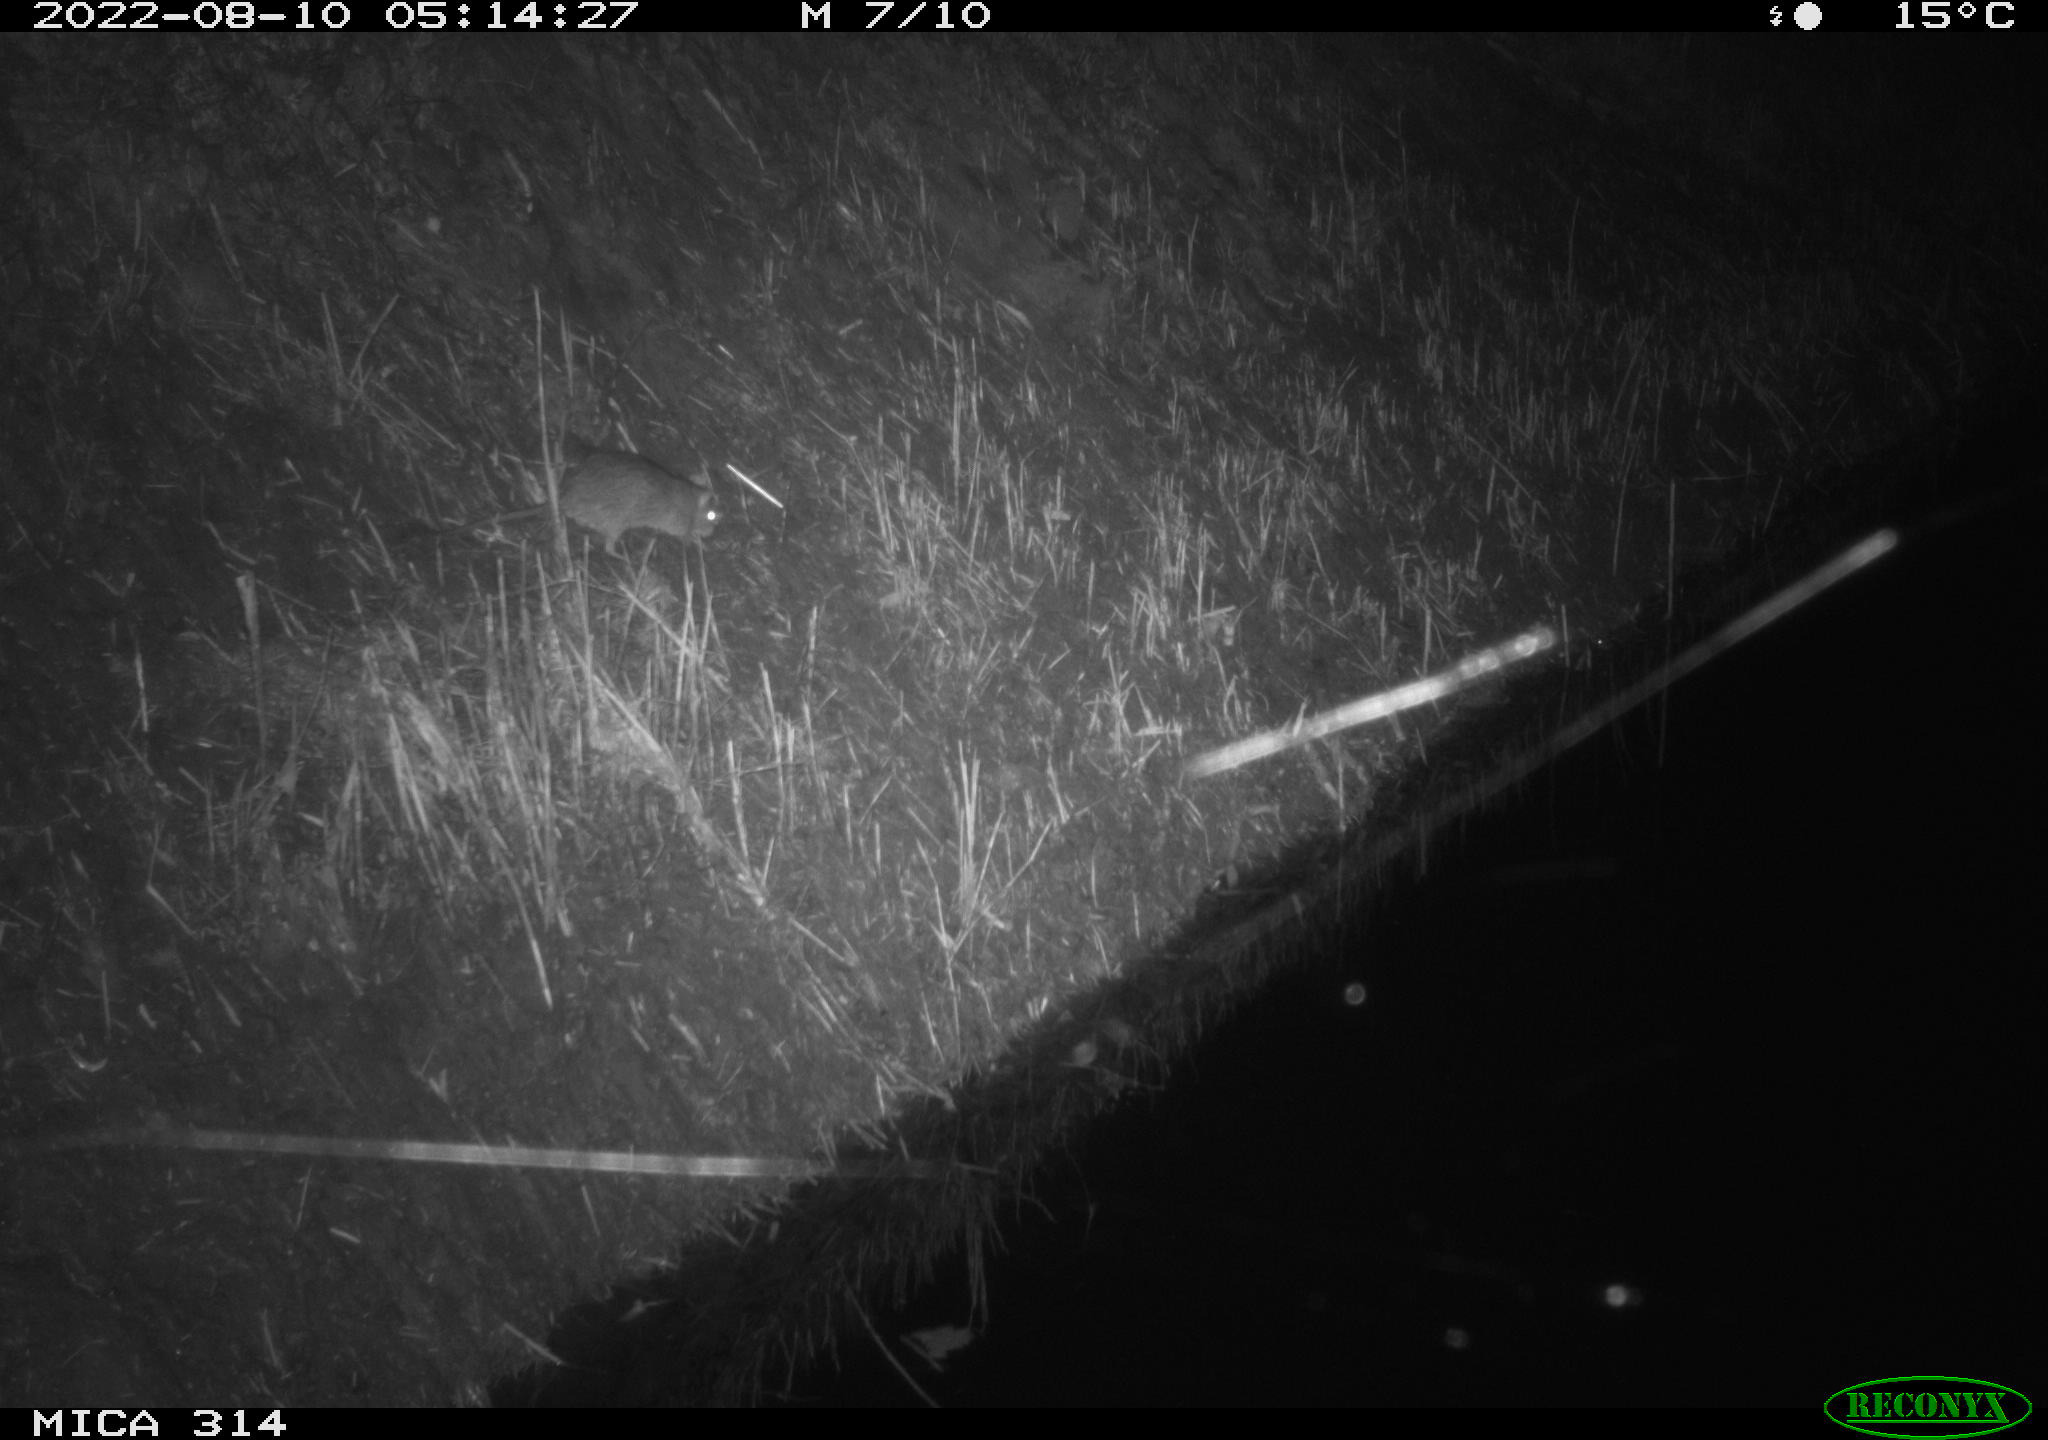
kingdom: Animalia
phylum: Chordata
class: Mammalia
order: Rodentia
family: Muridae
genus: Rattus
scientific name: Rattus norvegicus
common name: Brown rat
